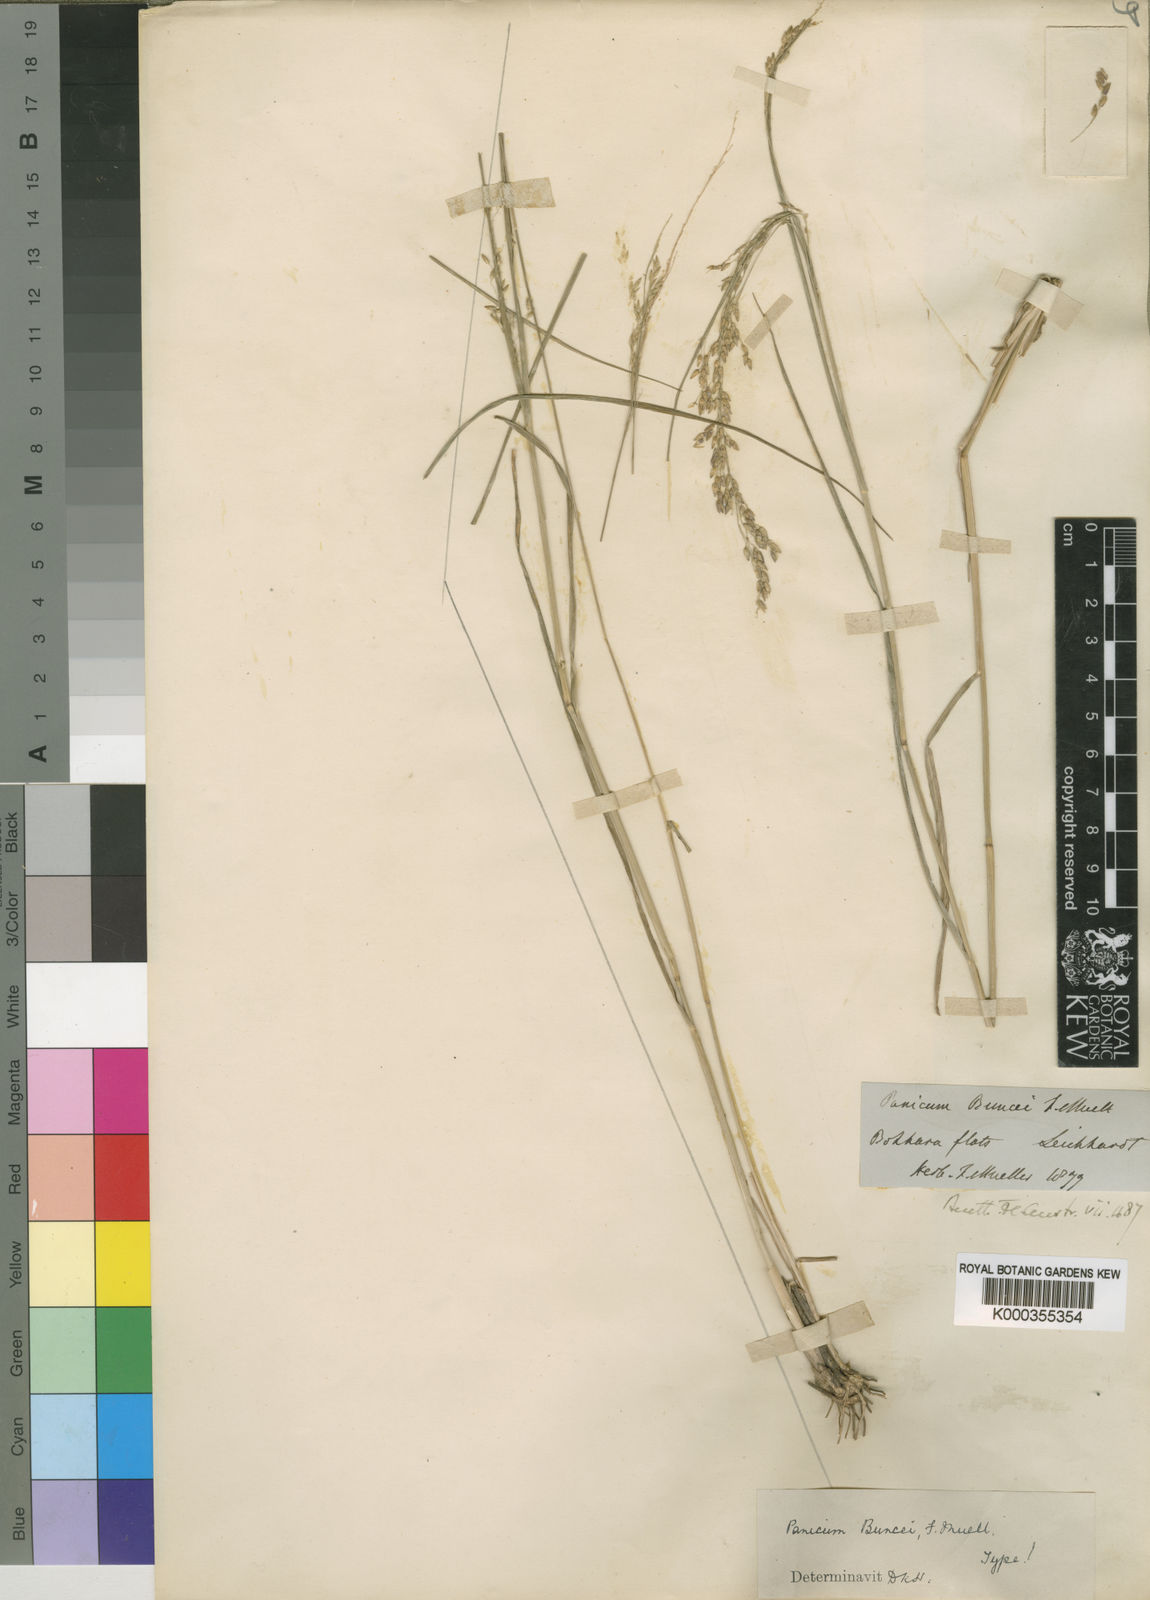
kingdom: Plantae
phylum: Tracheophyta
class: Liliopsida
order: Poales
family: Poaceae
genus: Panicum
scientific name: Panicum
